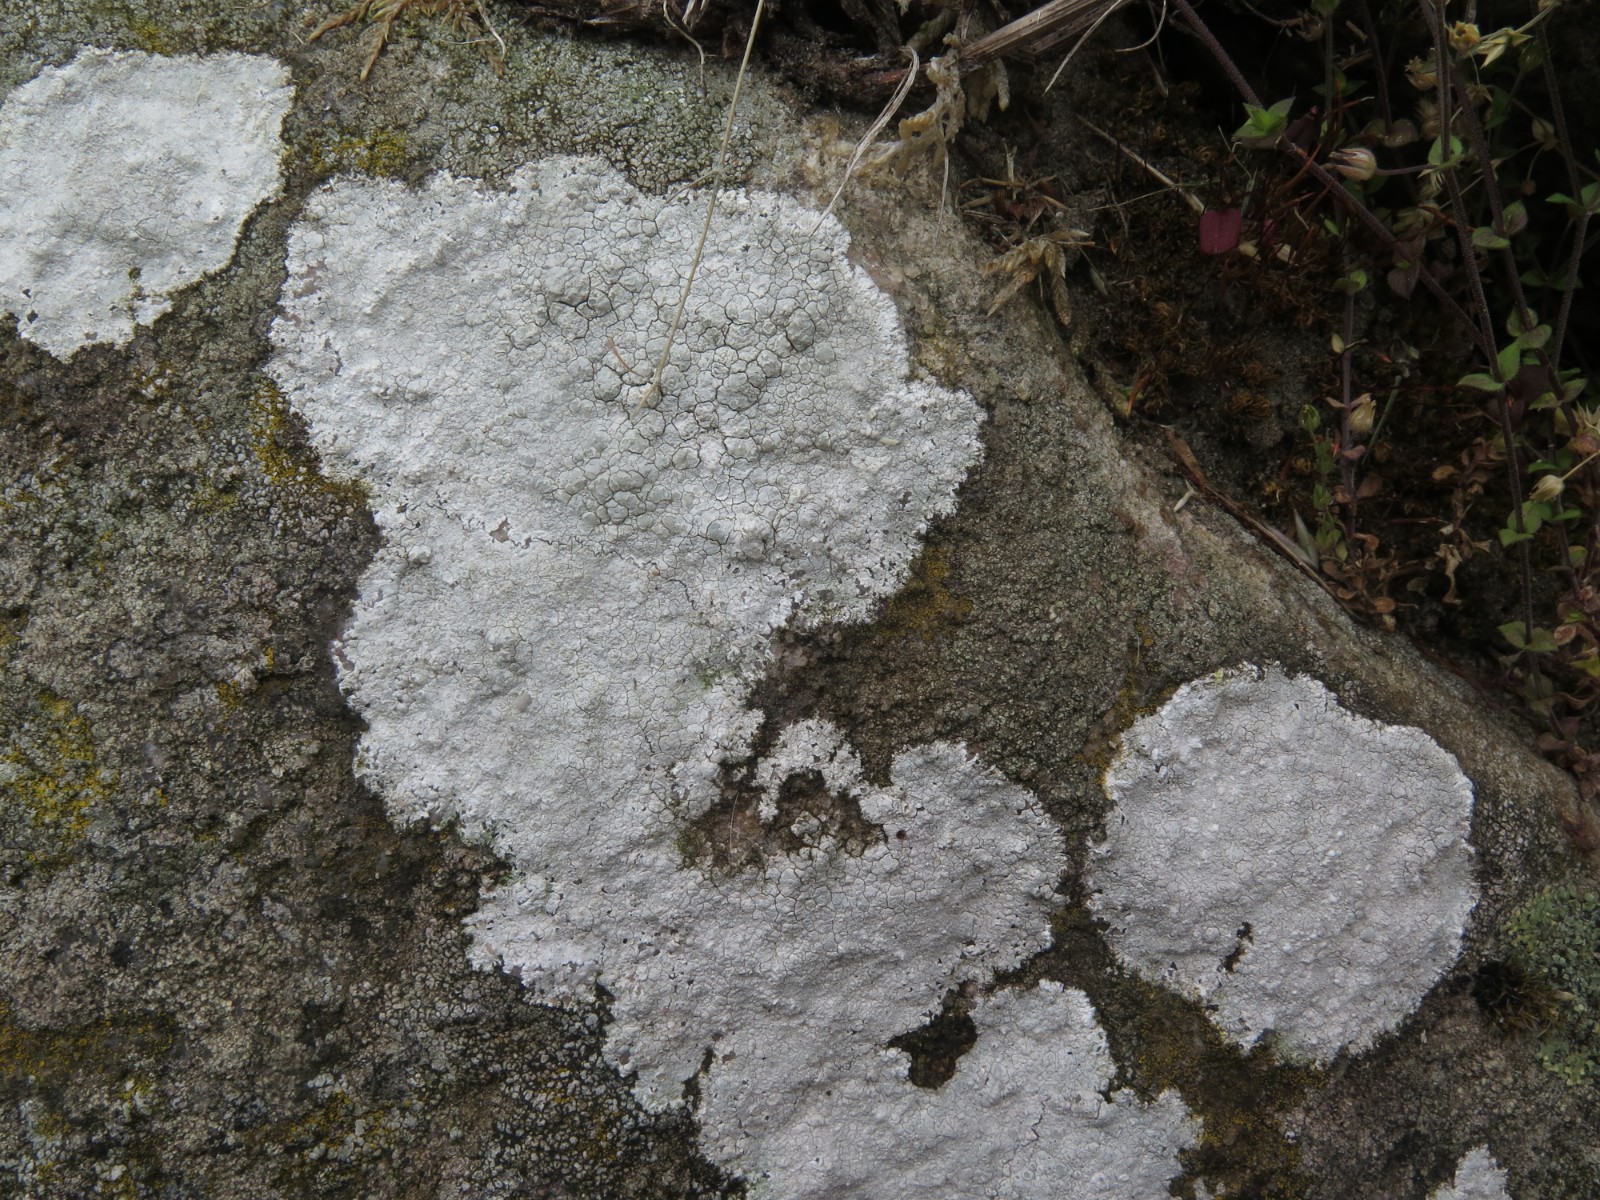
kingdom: Fungi
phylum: Ascomycota
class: Lecanoromycetes
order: Lecanorales
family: Lecanoraceae
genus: Glaucomaria
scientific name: Glaucomaria rupicola
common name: stengærde-kantskivelav
